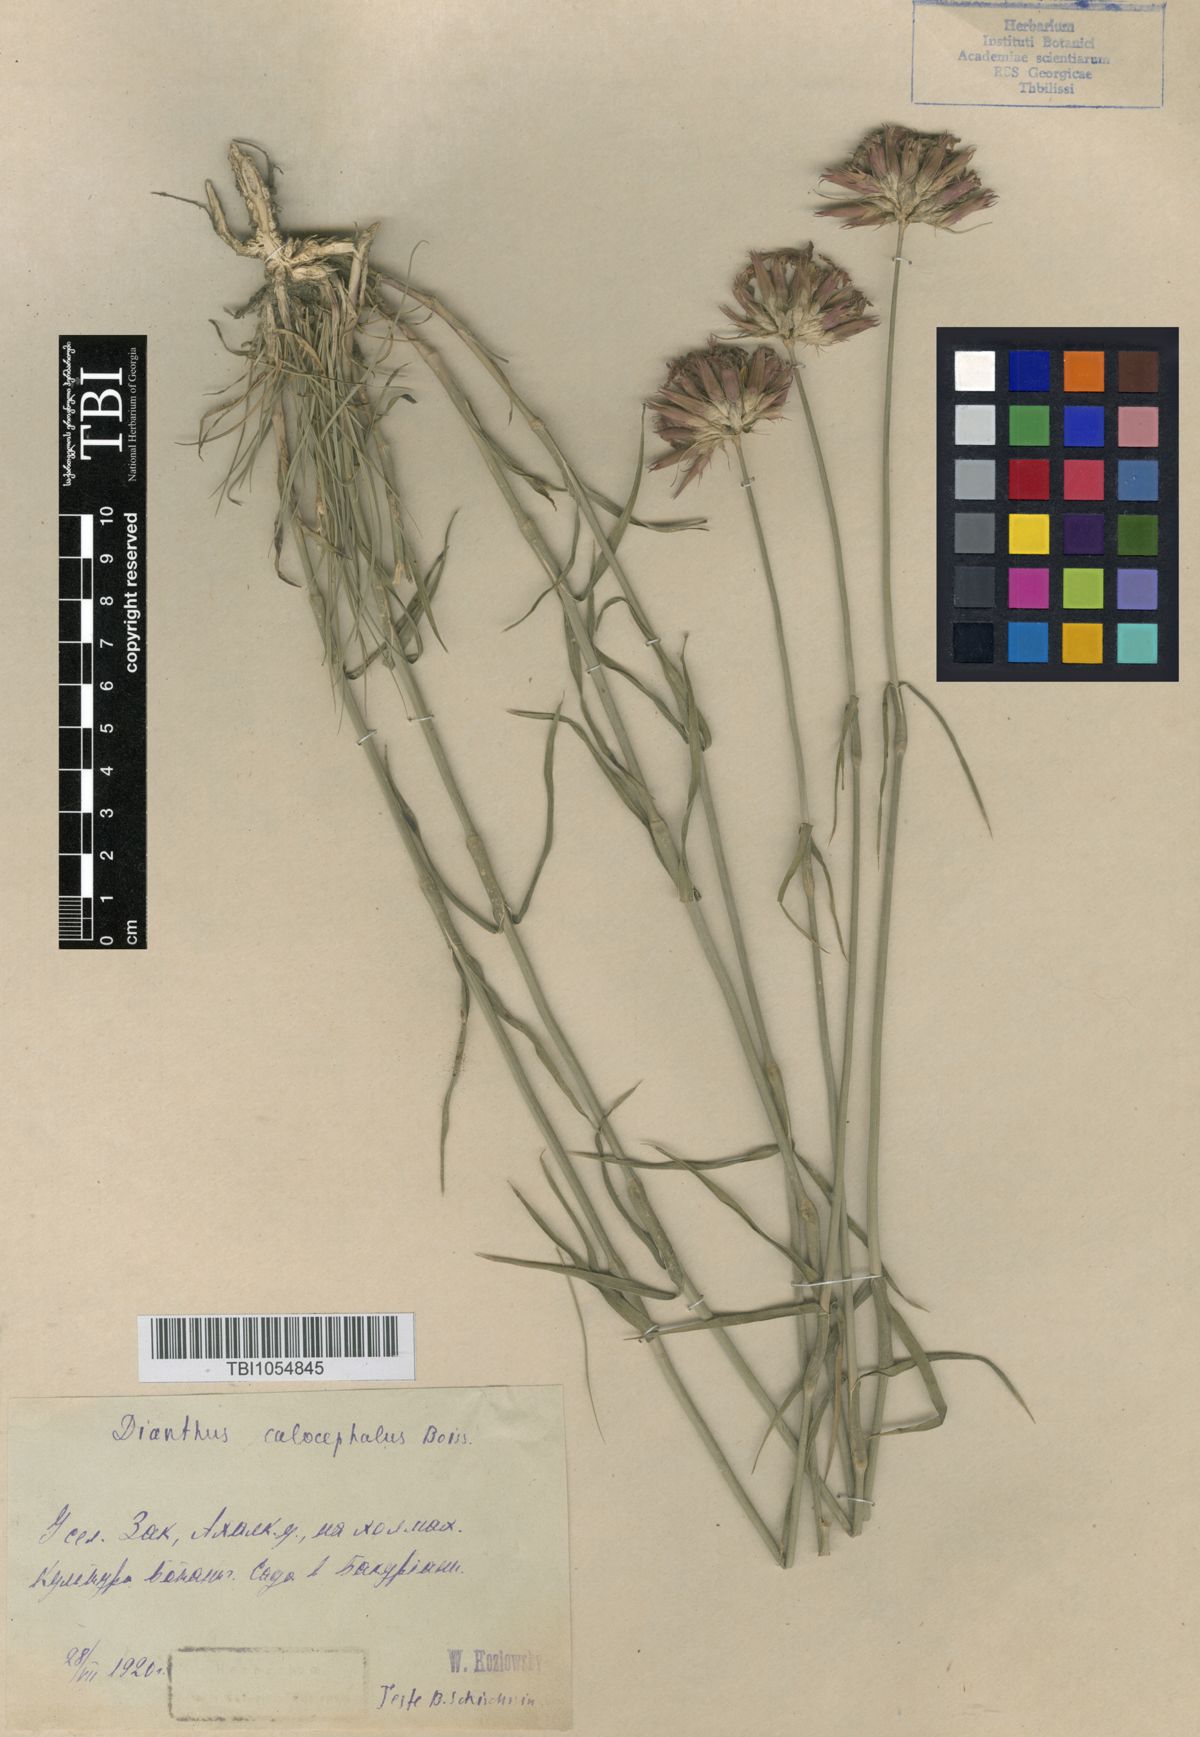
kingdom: Plantae
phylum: Tracheophyta
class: Magnoliopsida
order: Caryophyllales
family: Caryophyllaceae
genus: Dianthus
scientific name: Dianthus cruentus
